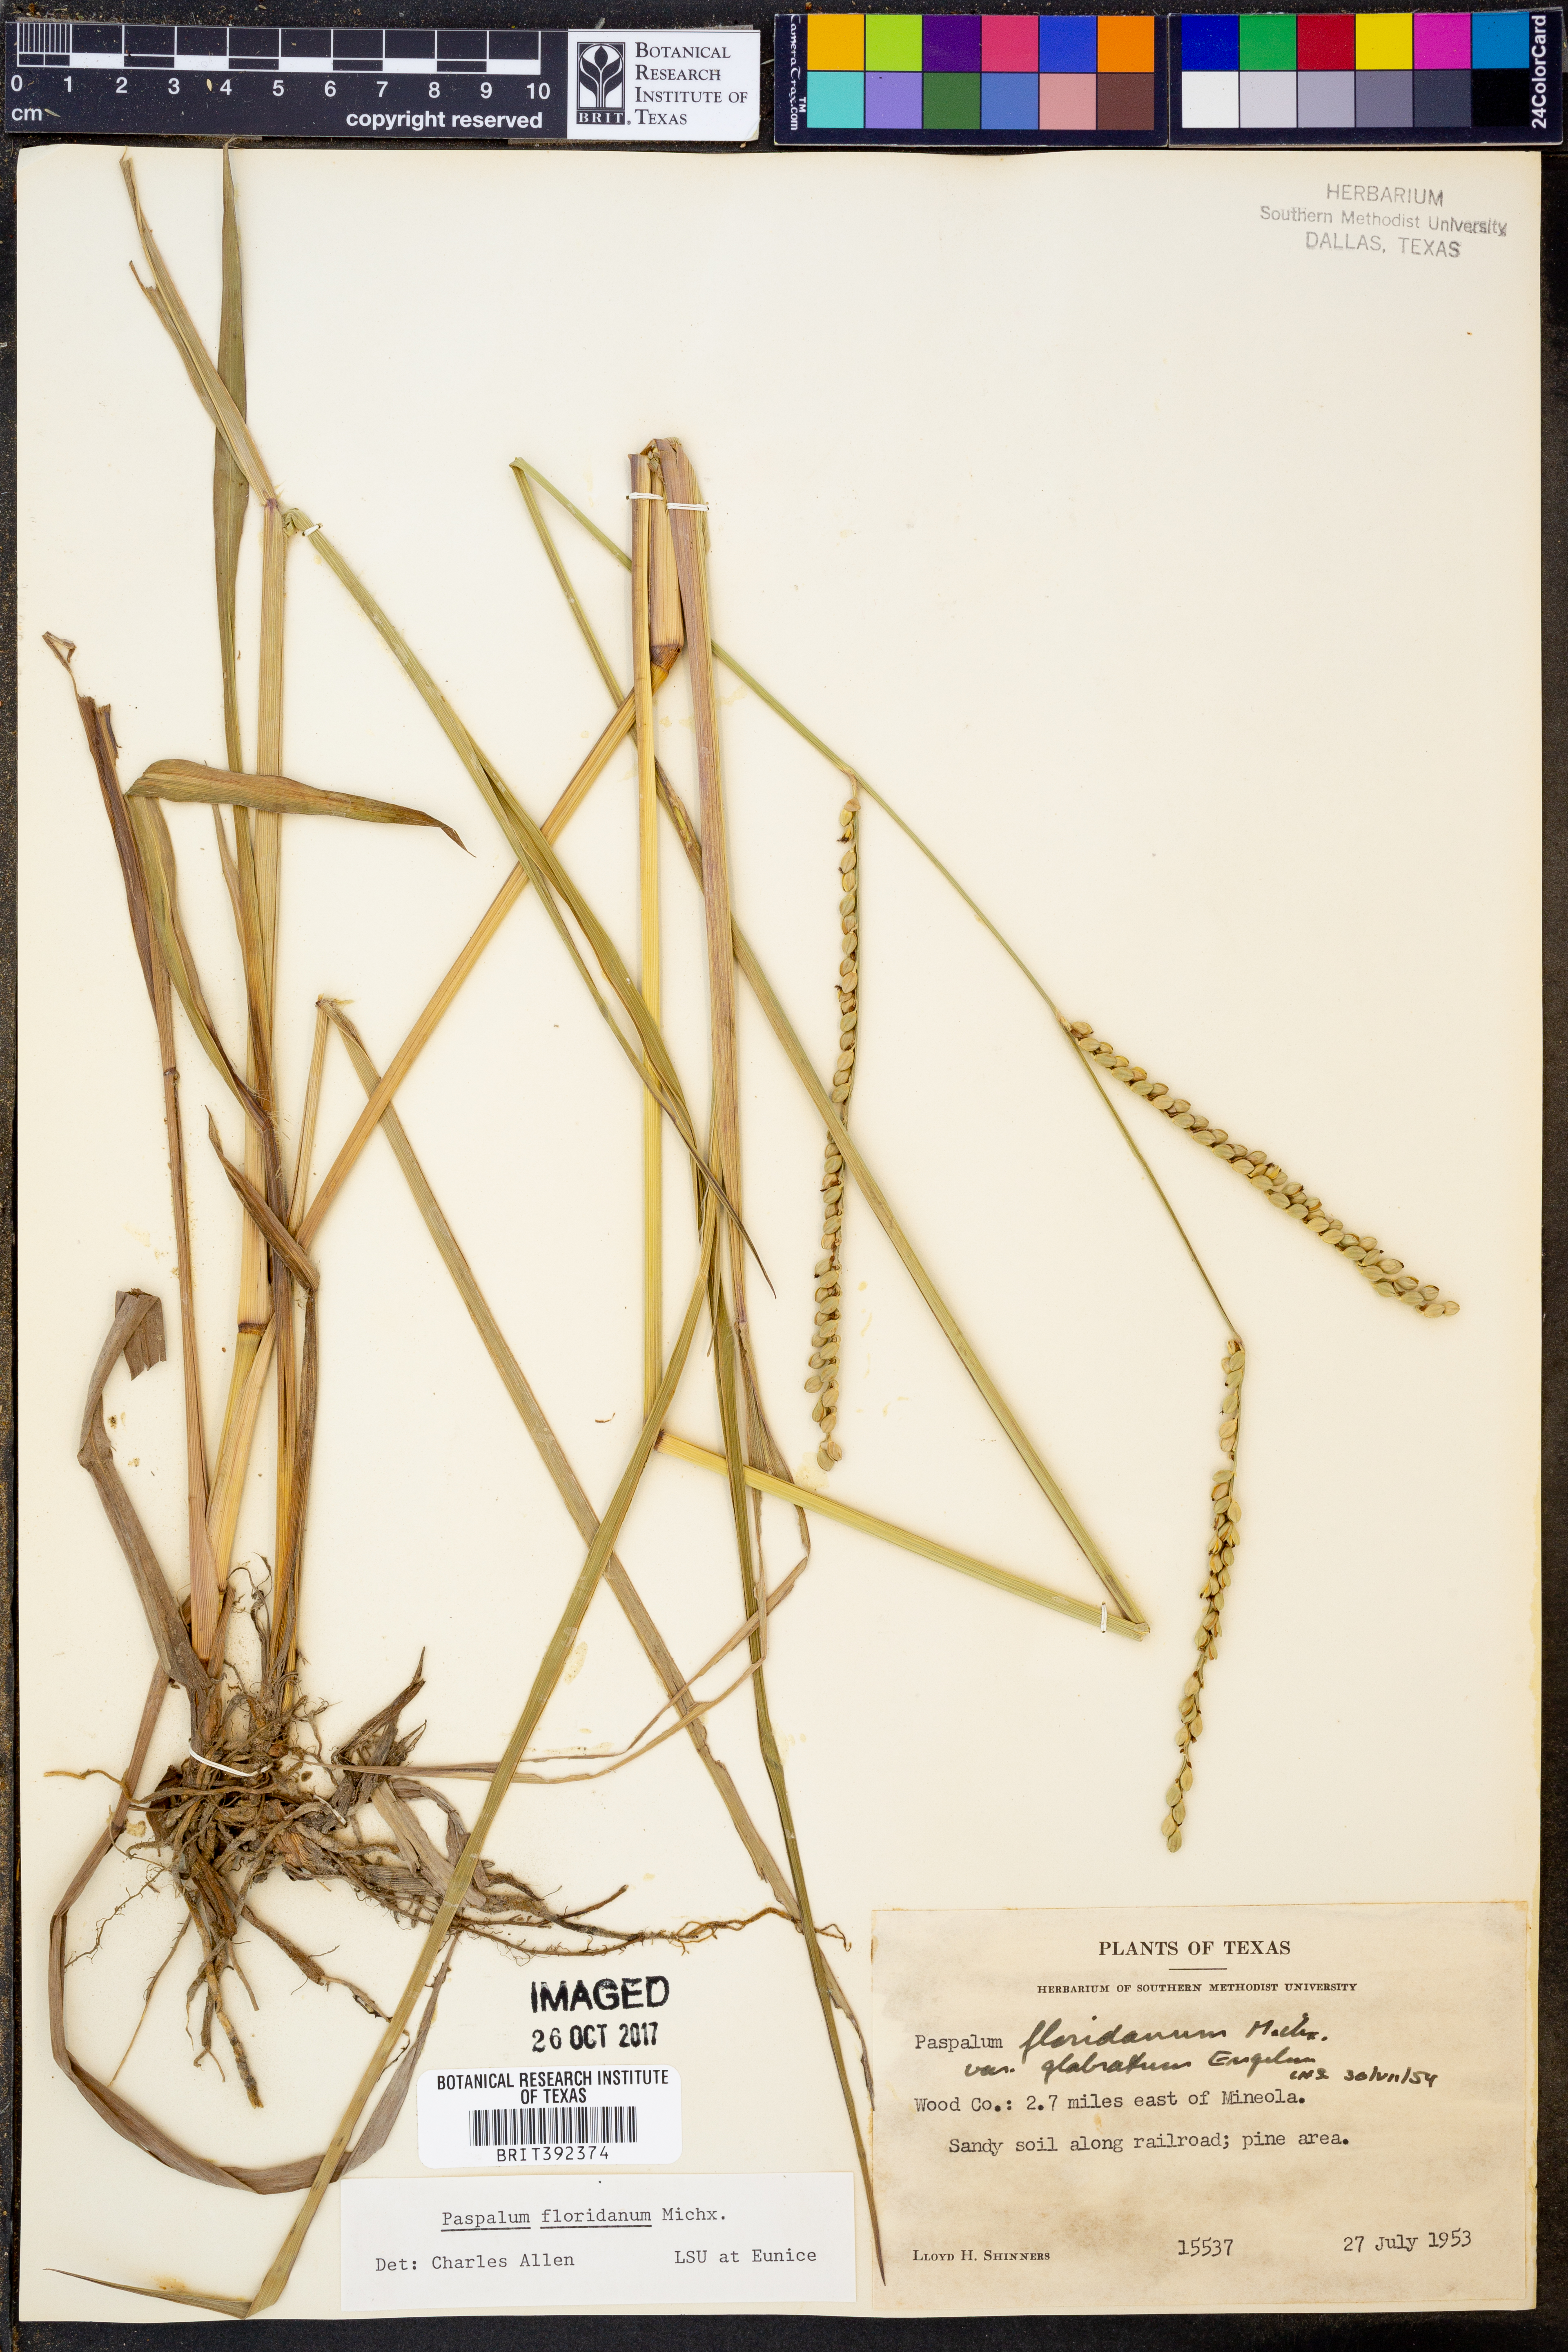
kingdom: Plantae
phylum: Tracheophyta
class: Liliopsida
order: Poales
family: Poaceae
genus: Paspalum
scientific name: Paspalum floridanum
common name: Florida paspalum
